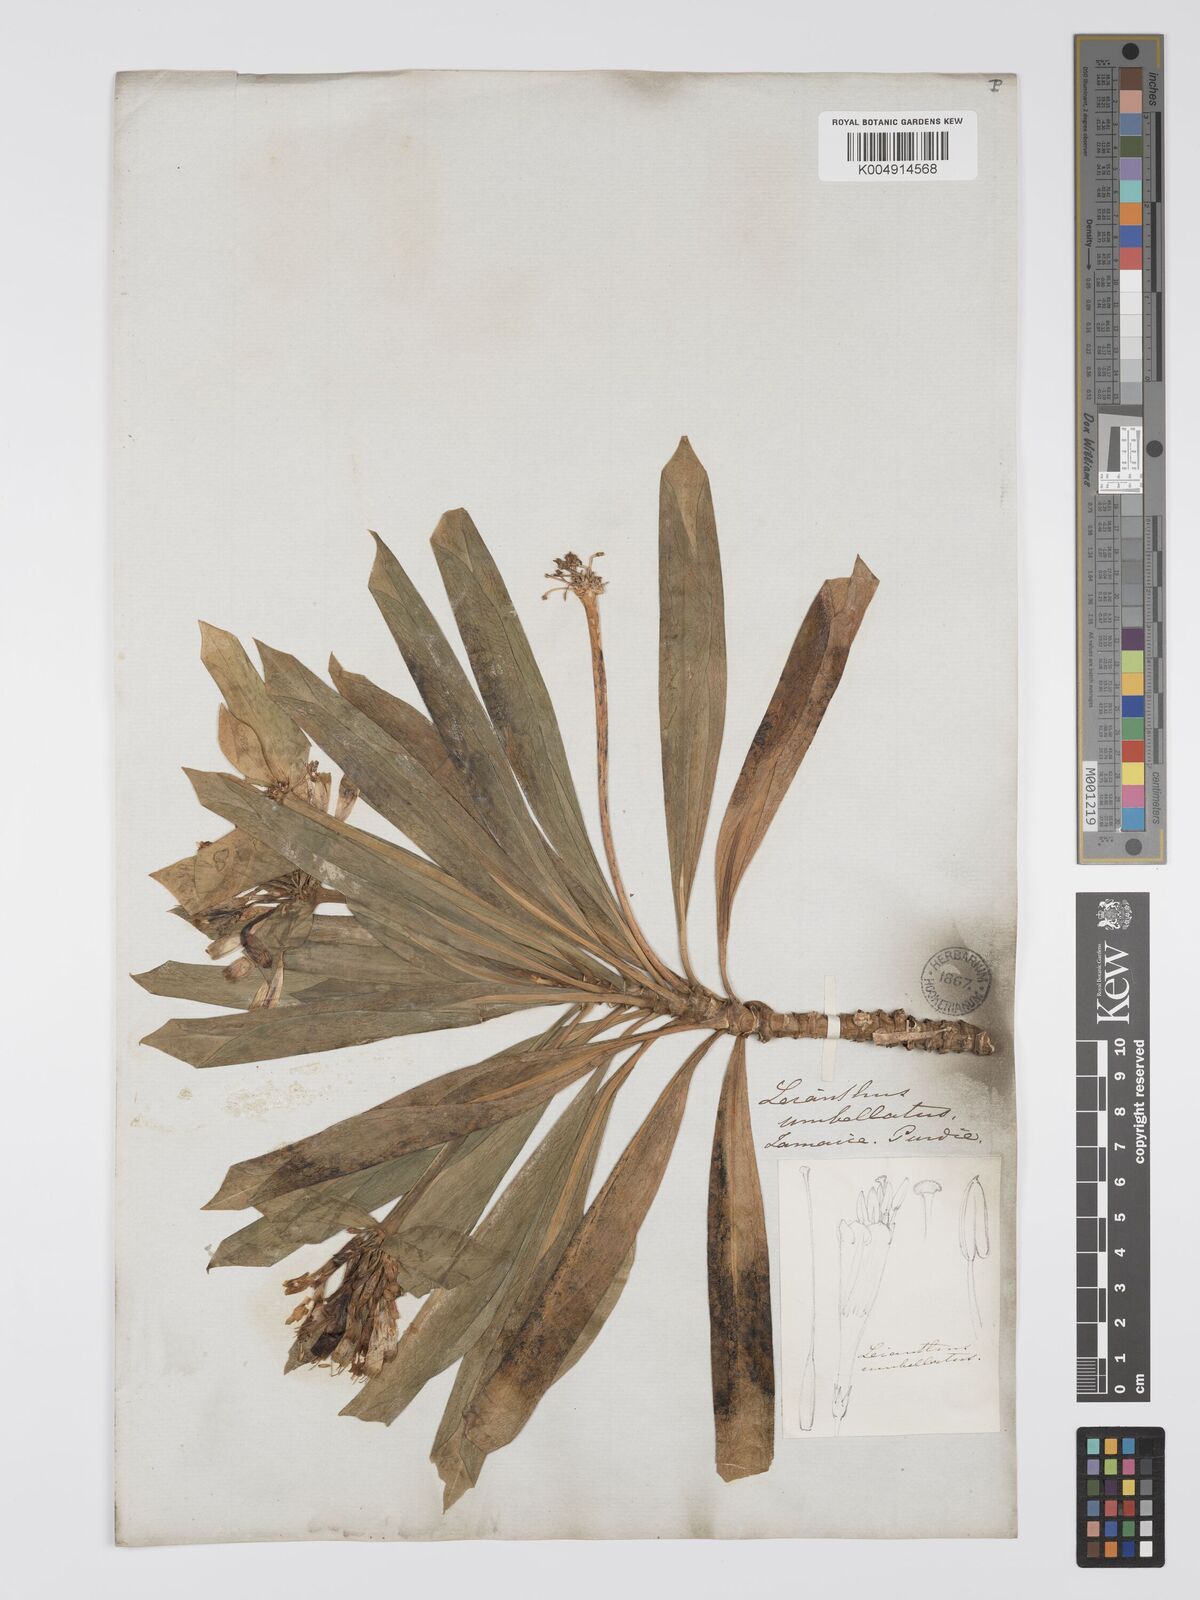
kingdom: Plantae
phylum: Tracheophyta
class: Magnoliopsida
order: Gentianales
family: Gentianaceae
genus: Lisianthus
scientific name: Lisianthus umbellatus
